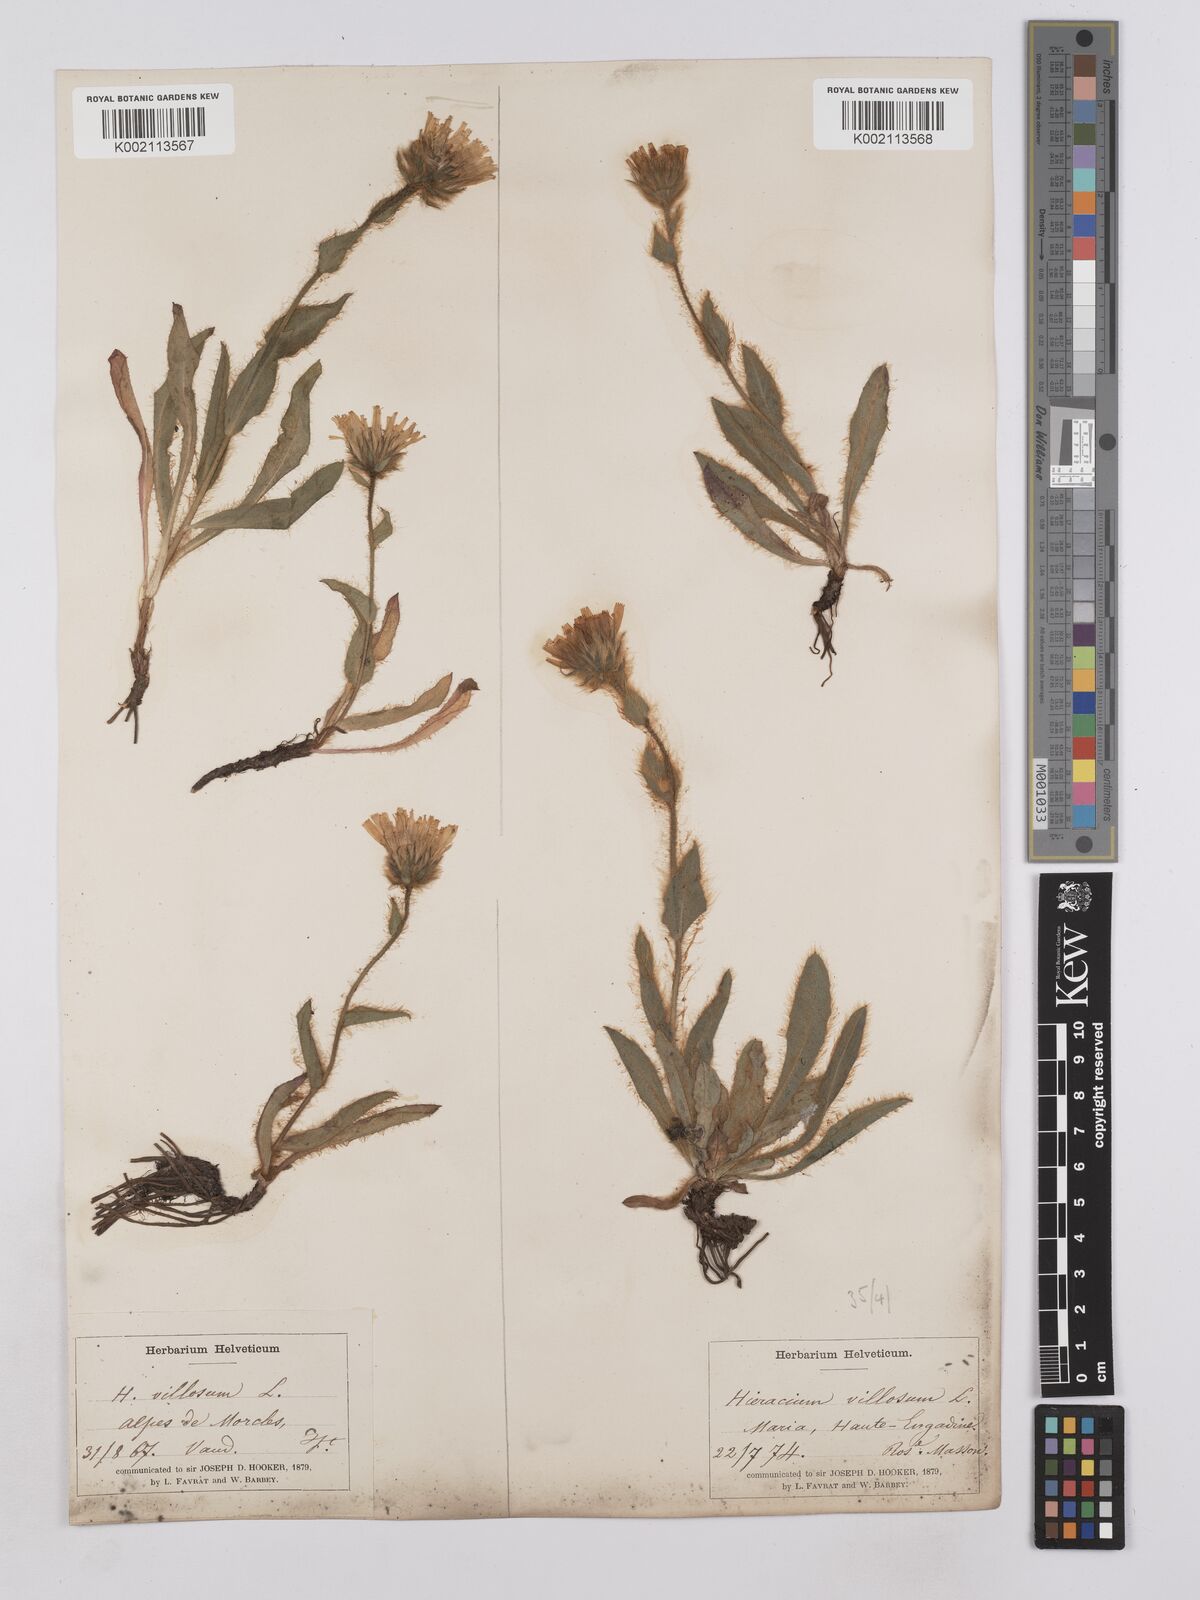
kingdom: Plantae
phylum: Tracheophyta
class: Magnoliopsida
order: Asterales
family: Asteraceae
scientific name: Asteraceae
